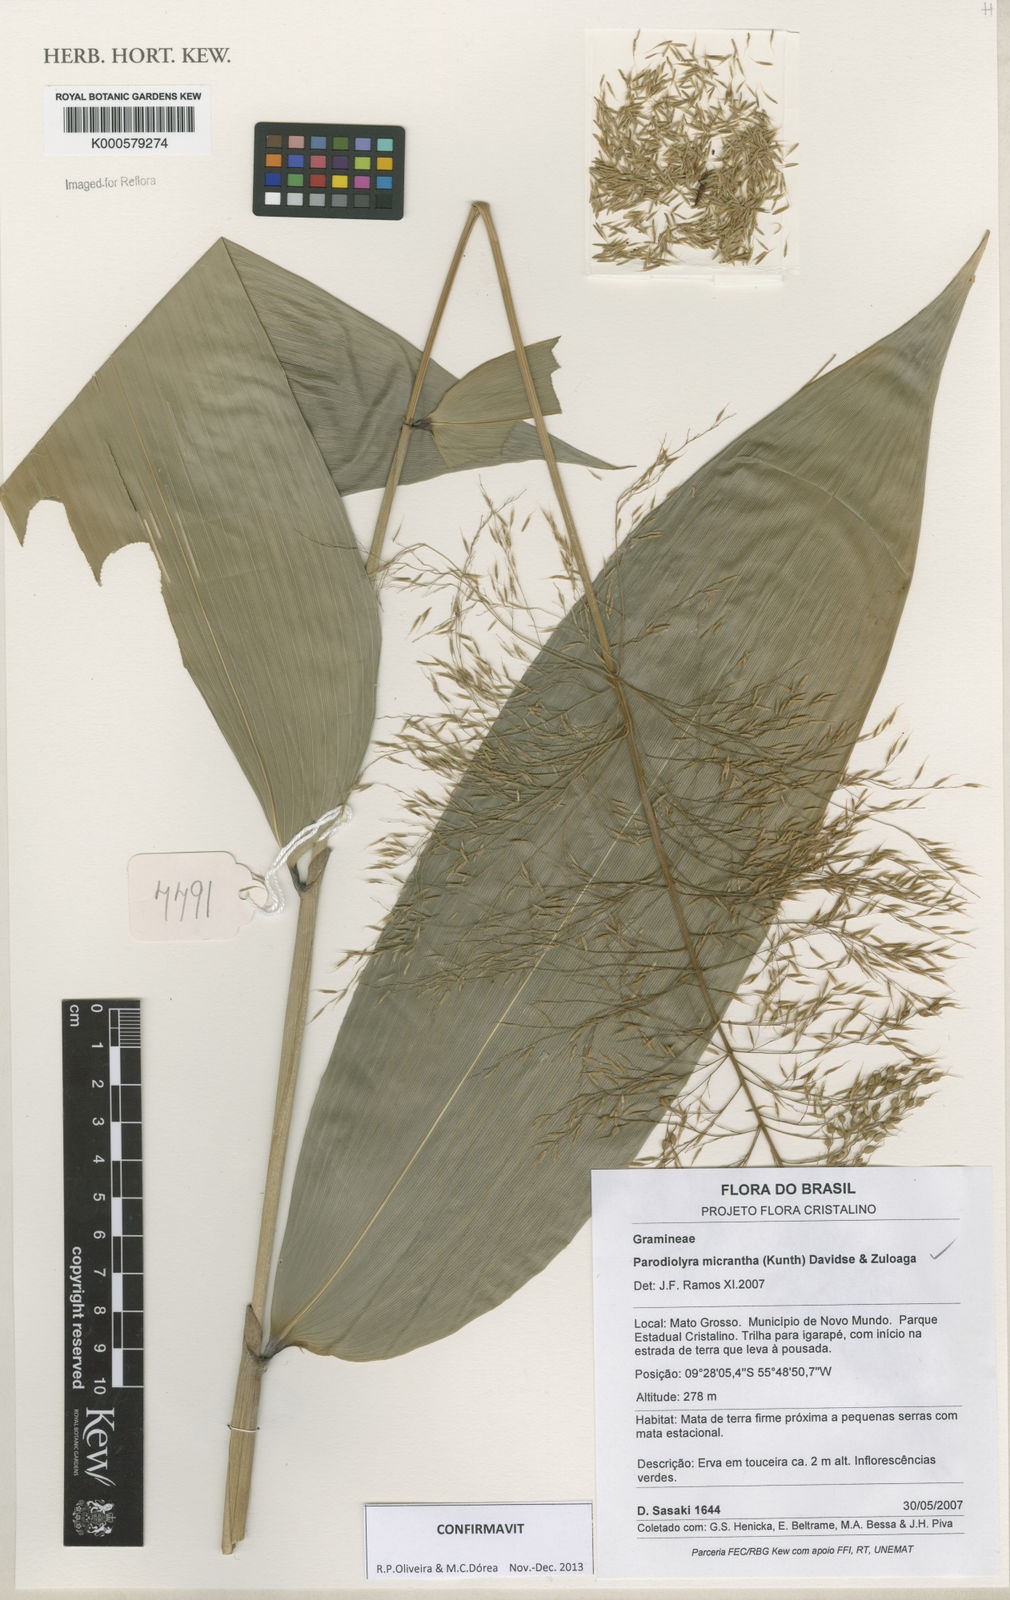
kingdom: Plantae
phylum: Tracheophyta
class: Liliopsida
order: Poales
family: Poaceae
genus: Taquara
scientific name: Taquara micrantha
